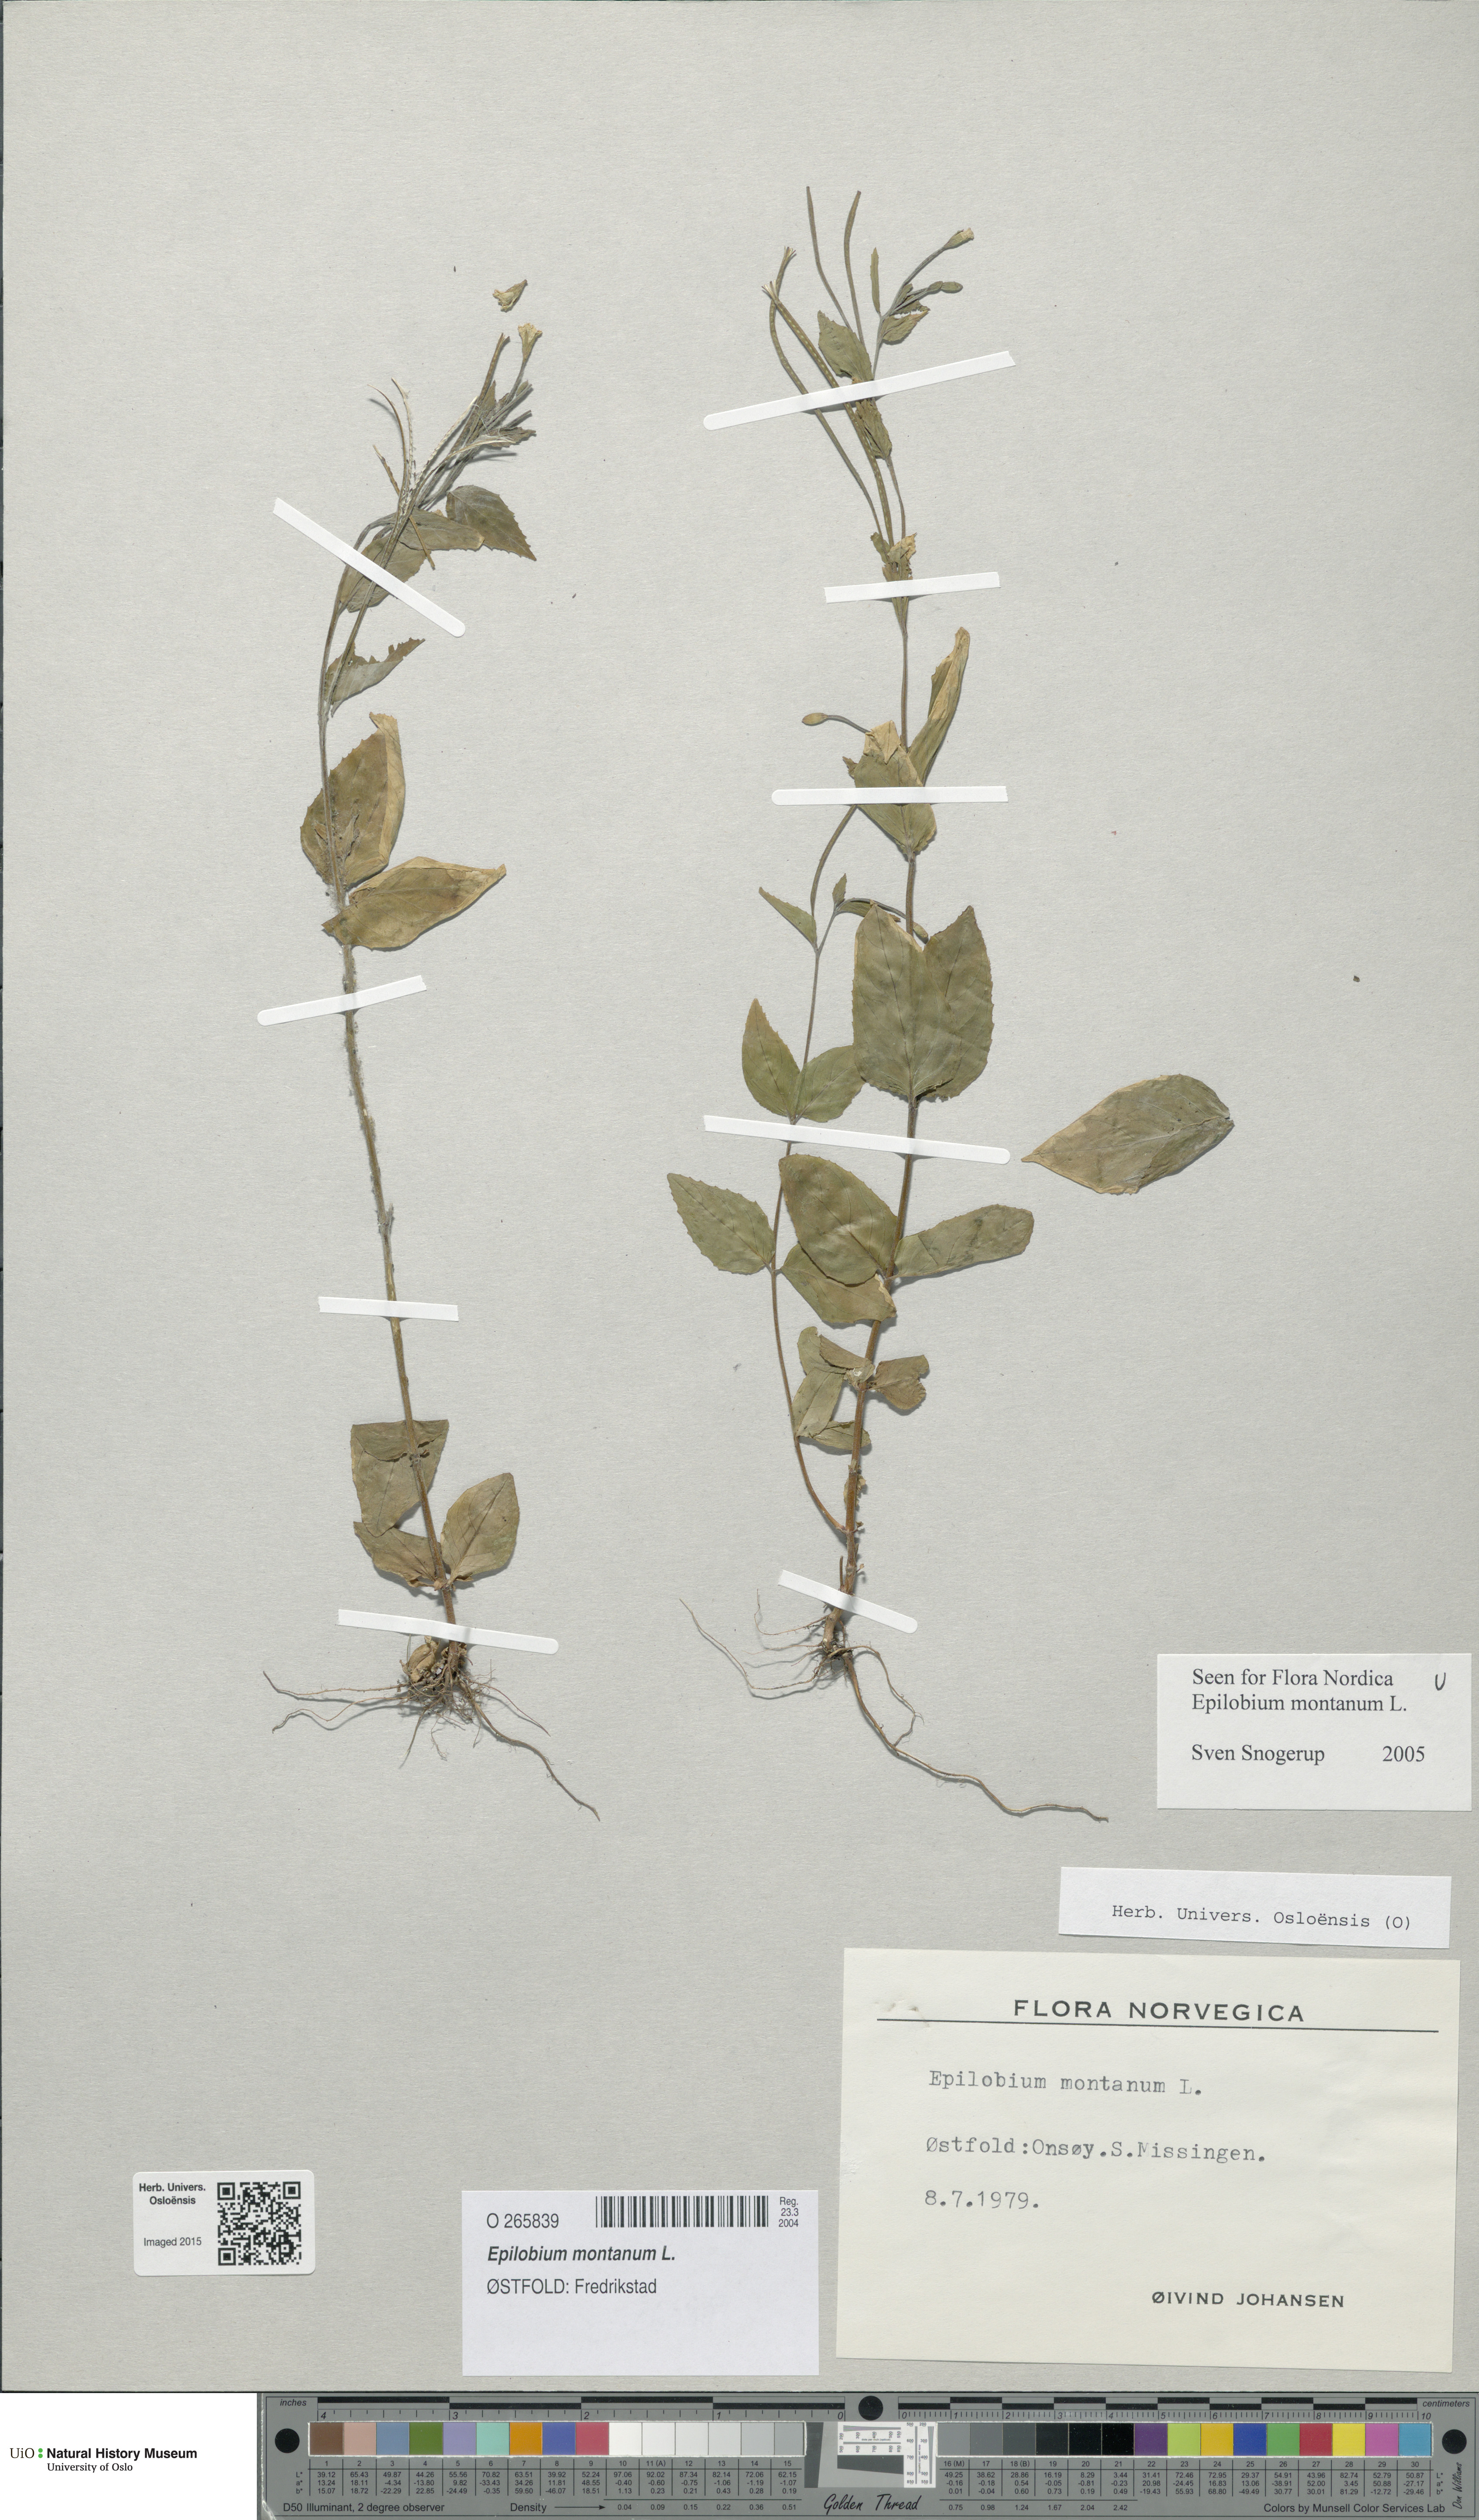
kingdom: Plantae
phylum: Tracheophyta
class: Magnoliopsida
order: Myrtales
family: Onagraceae
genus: Epilobium
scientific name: Epilobium montanum
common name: Broad-leaved willowherb
